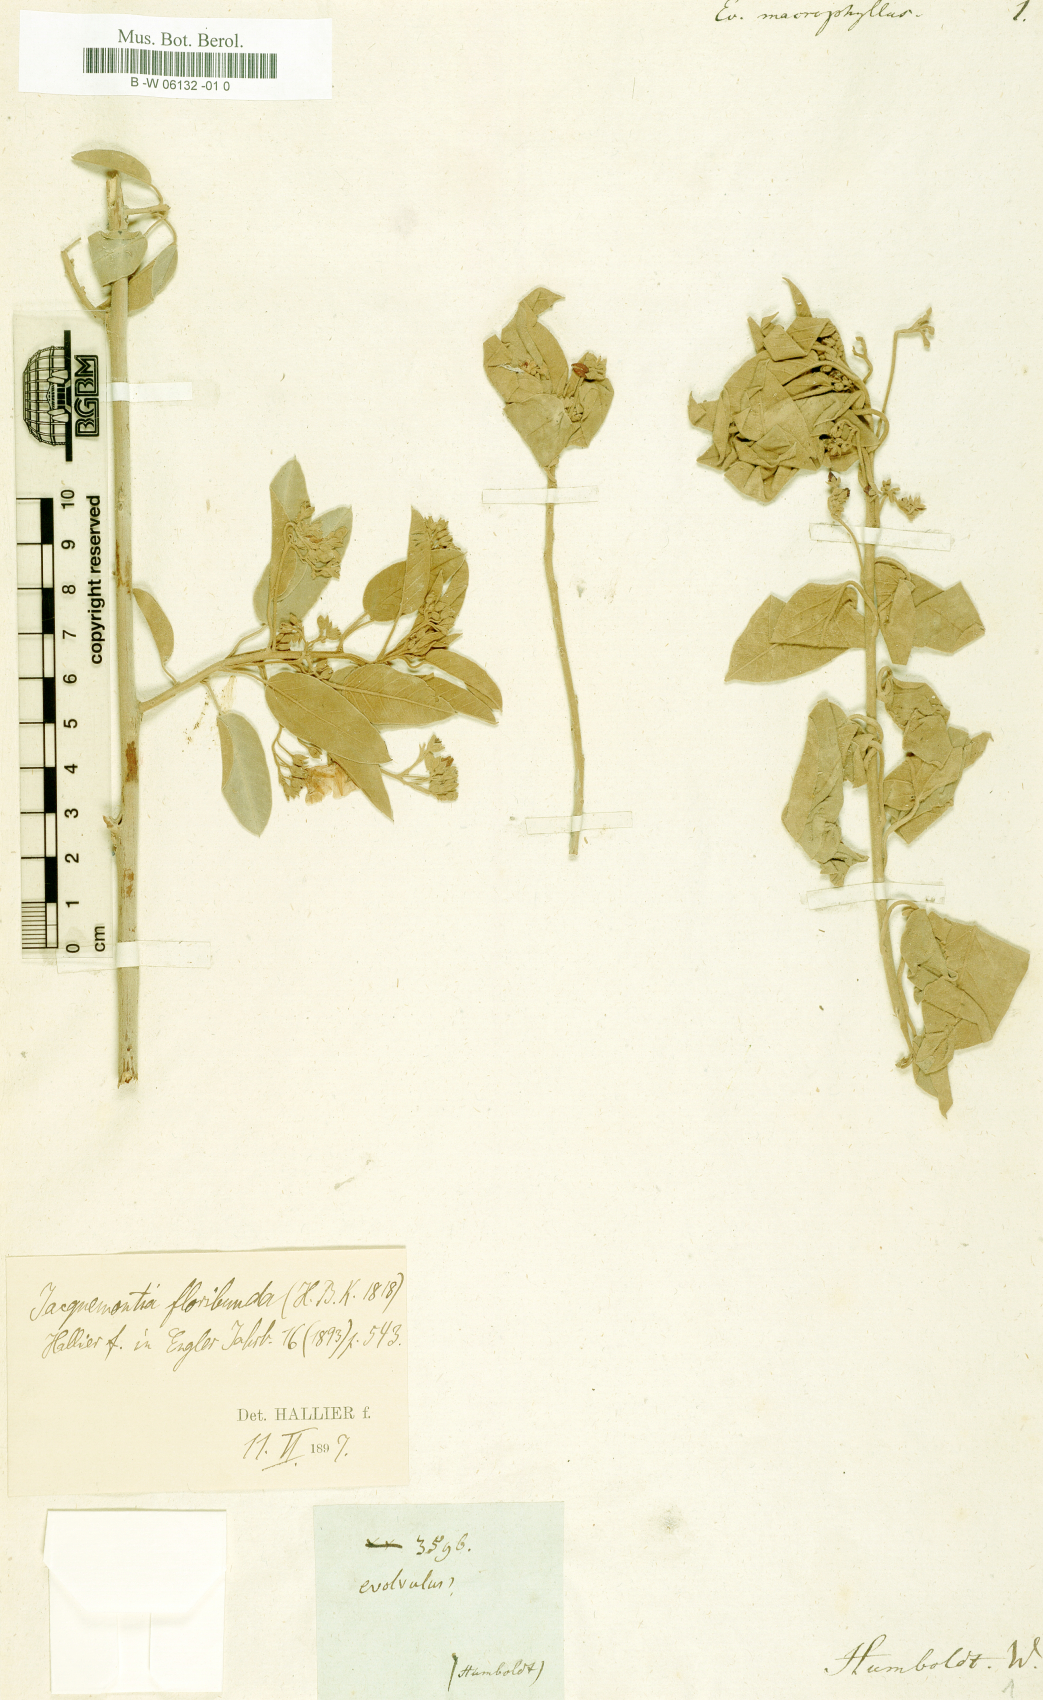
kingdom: Plantae
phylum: Tracheophyta
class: Magnoliopsida
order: Solanales
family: Convolvulaceae
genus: Jacquemontia
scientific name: Jacquemontia floribunda
